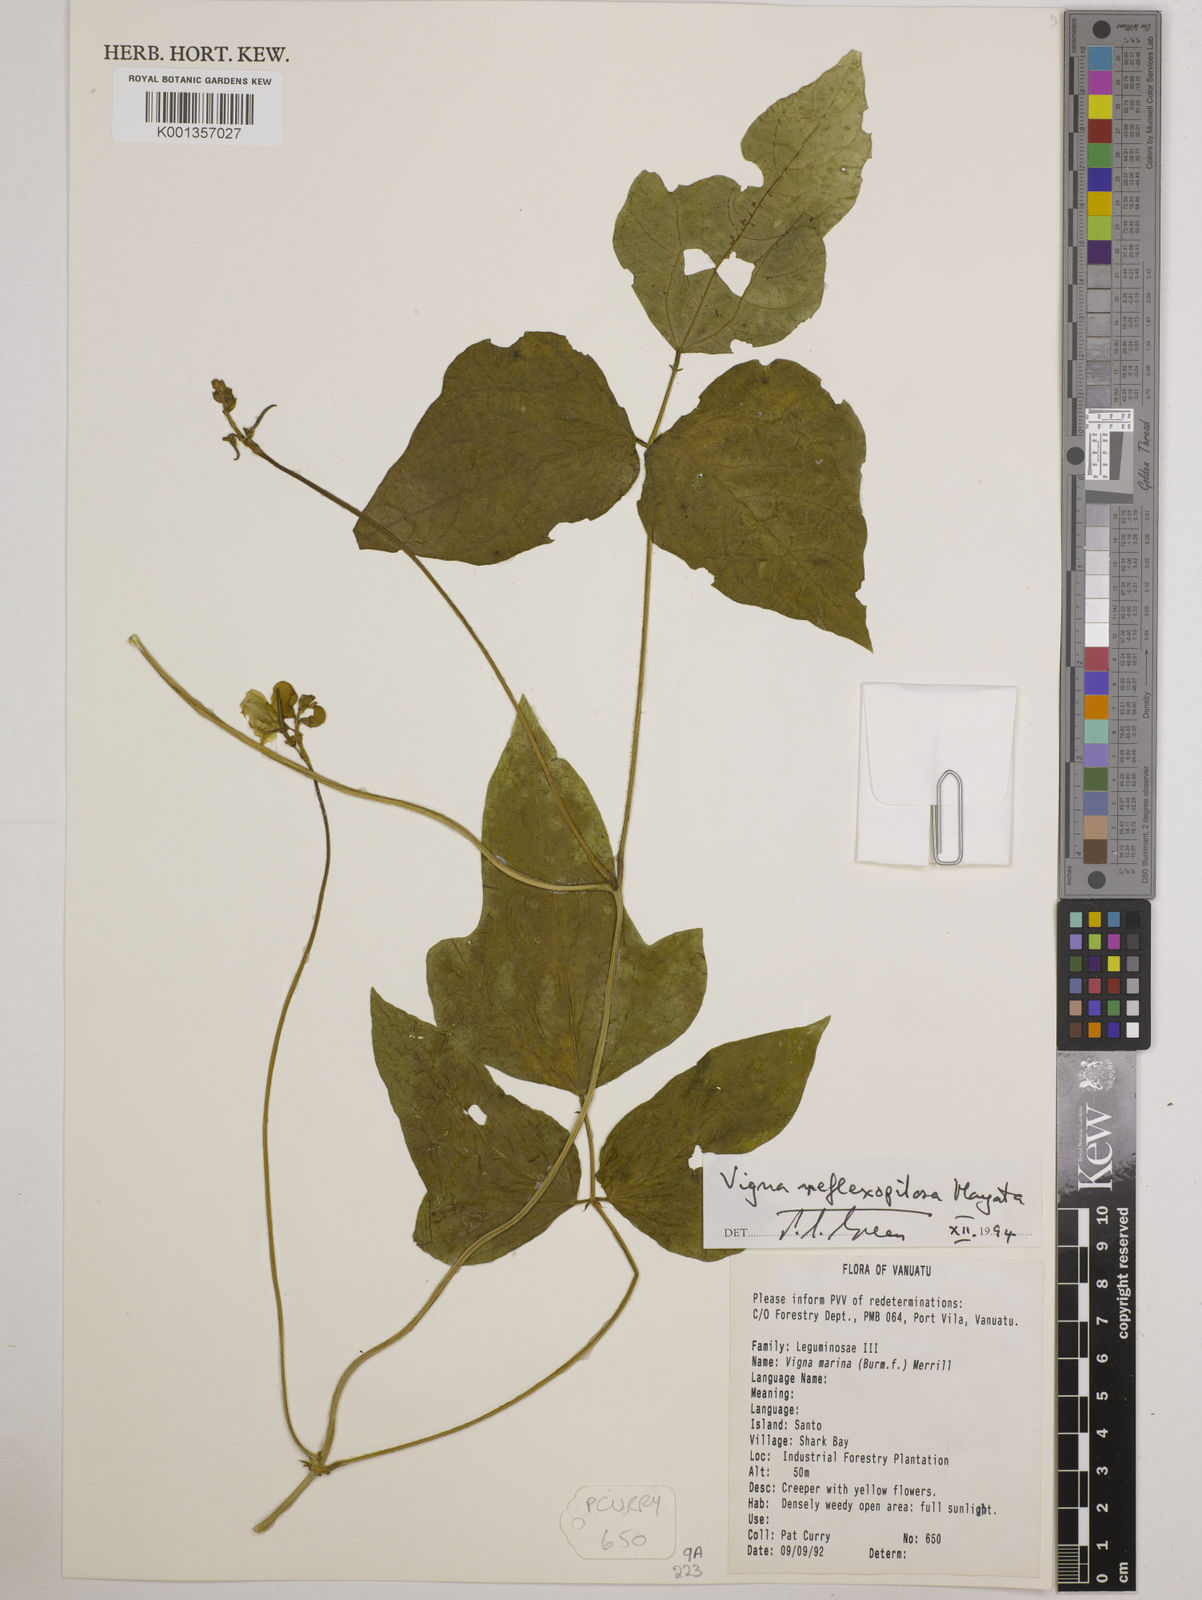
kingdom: Plantae
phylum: Tracheophyta
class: Magnoliopsida
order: Fabales
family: Fabaceae
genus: Vigna
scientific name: Vigna reflexopilosa
